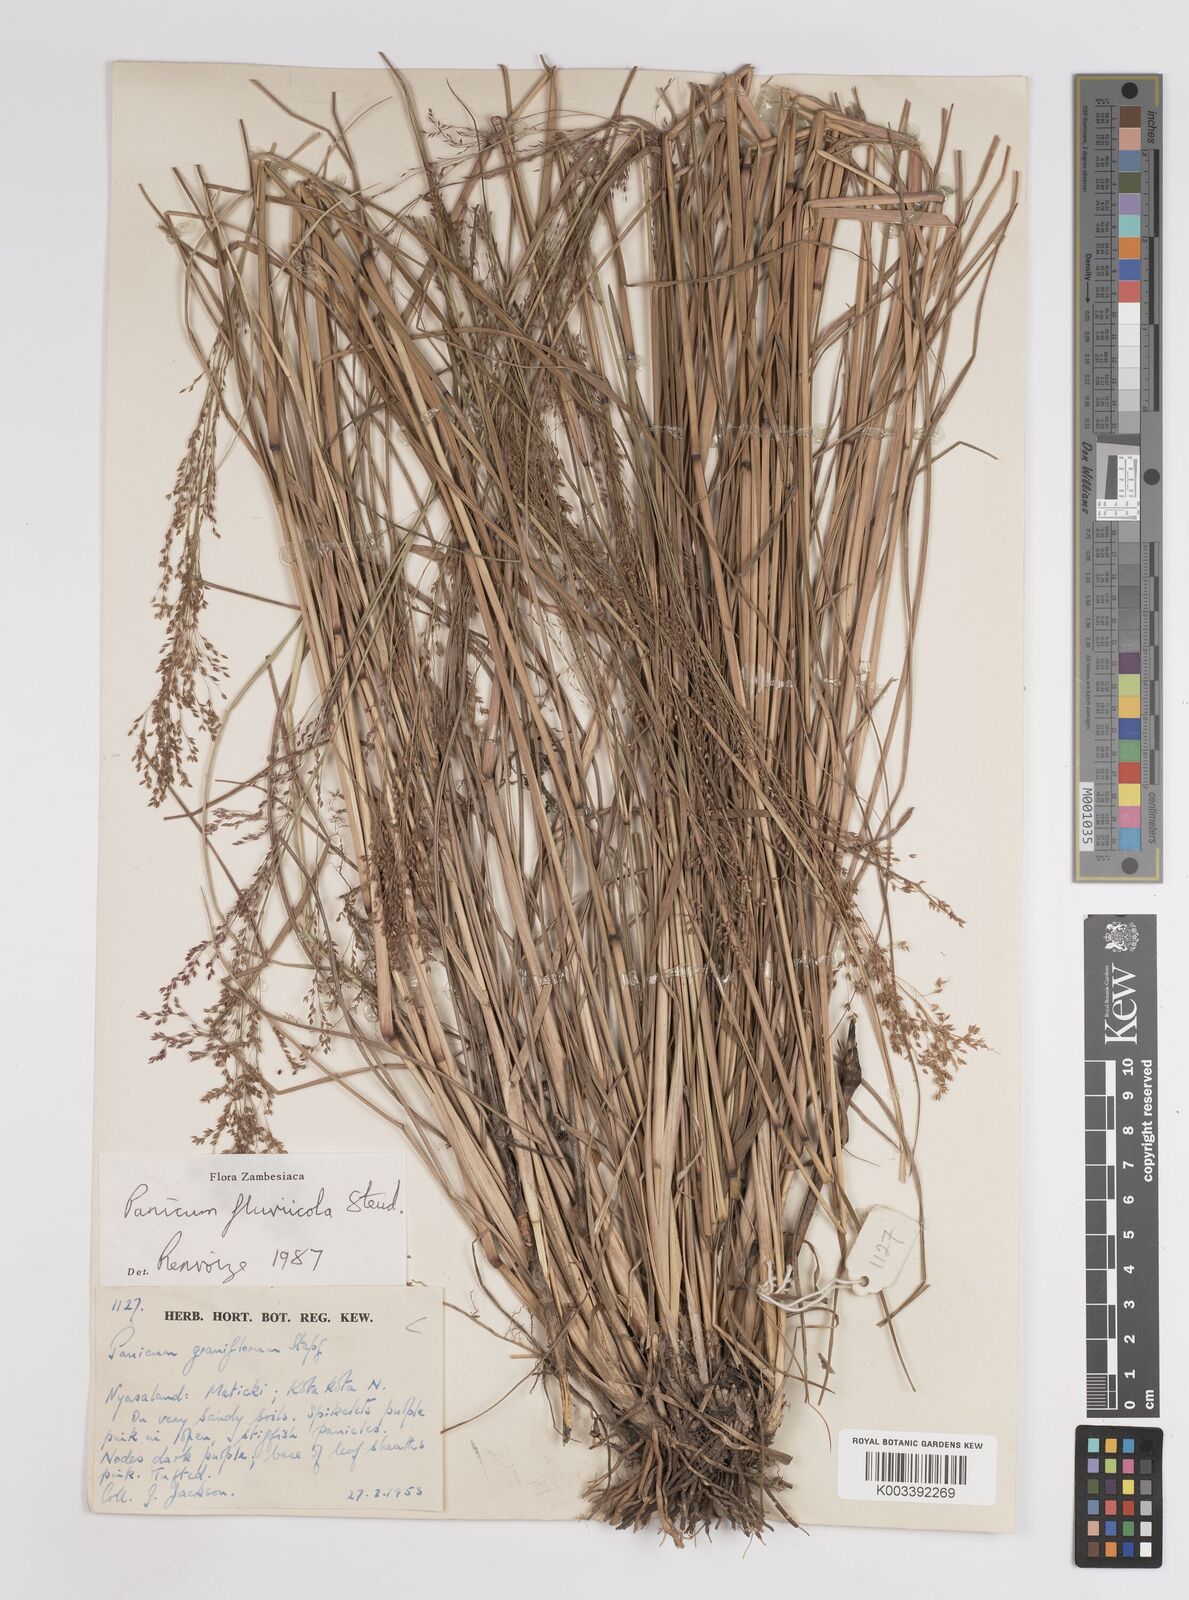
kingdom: Plantae
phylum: Tracheophyta
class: Liliopsida
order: Poales
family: Poaceae
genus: Panicum
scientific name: Panicum fluviicola
